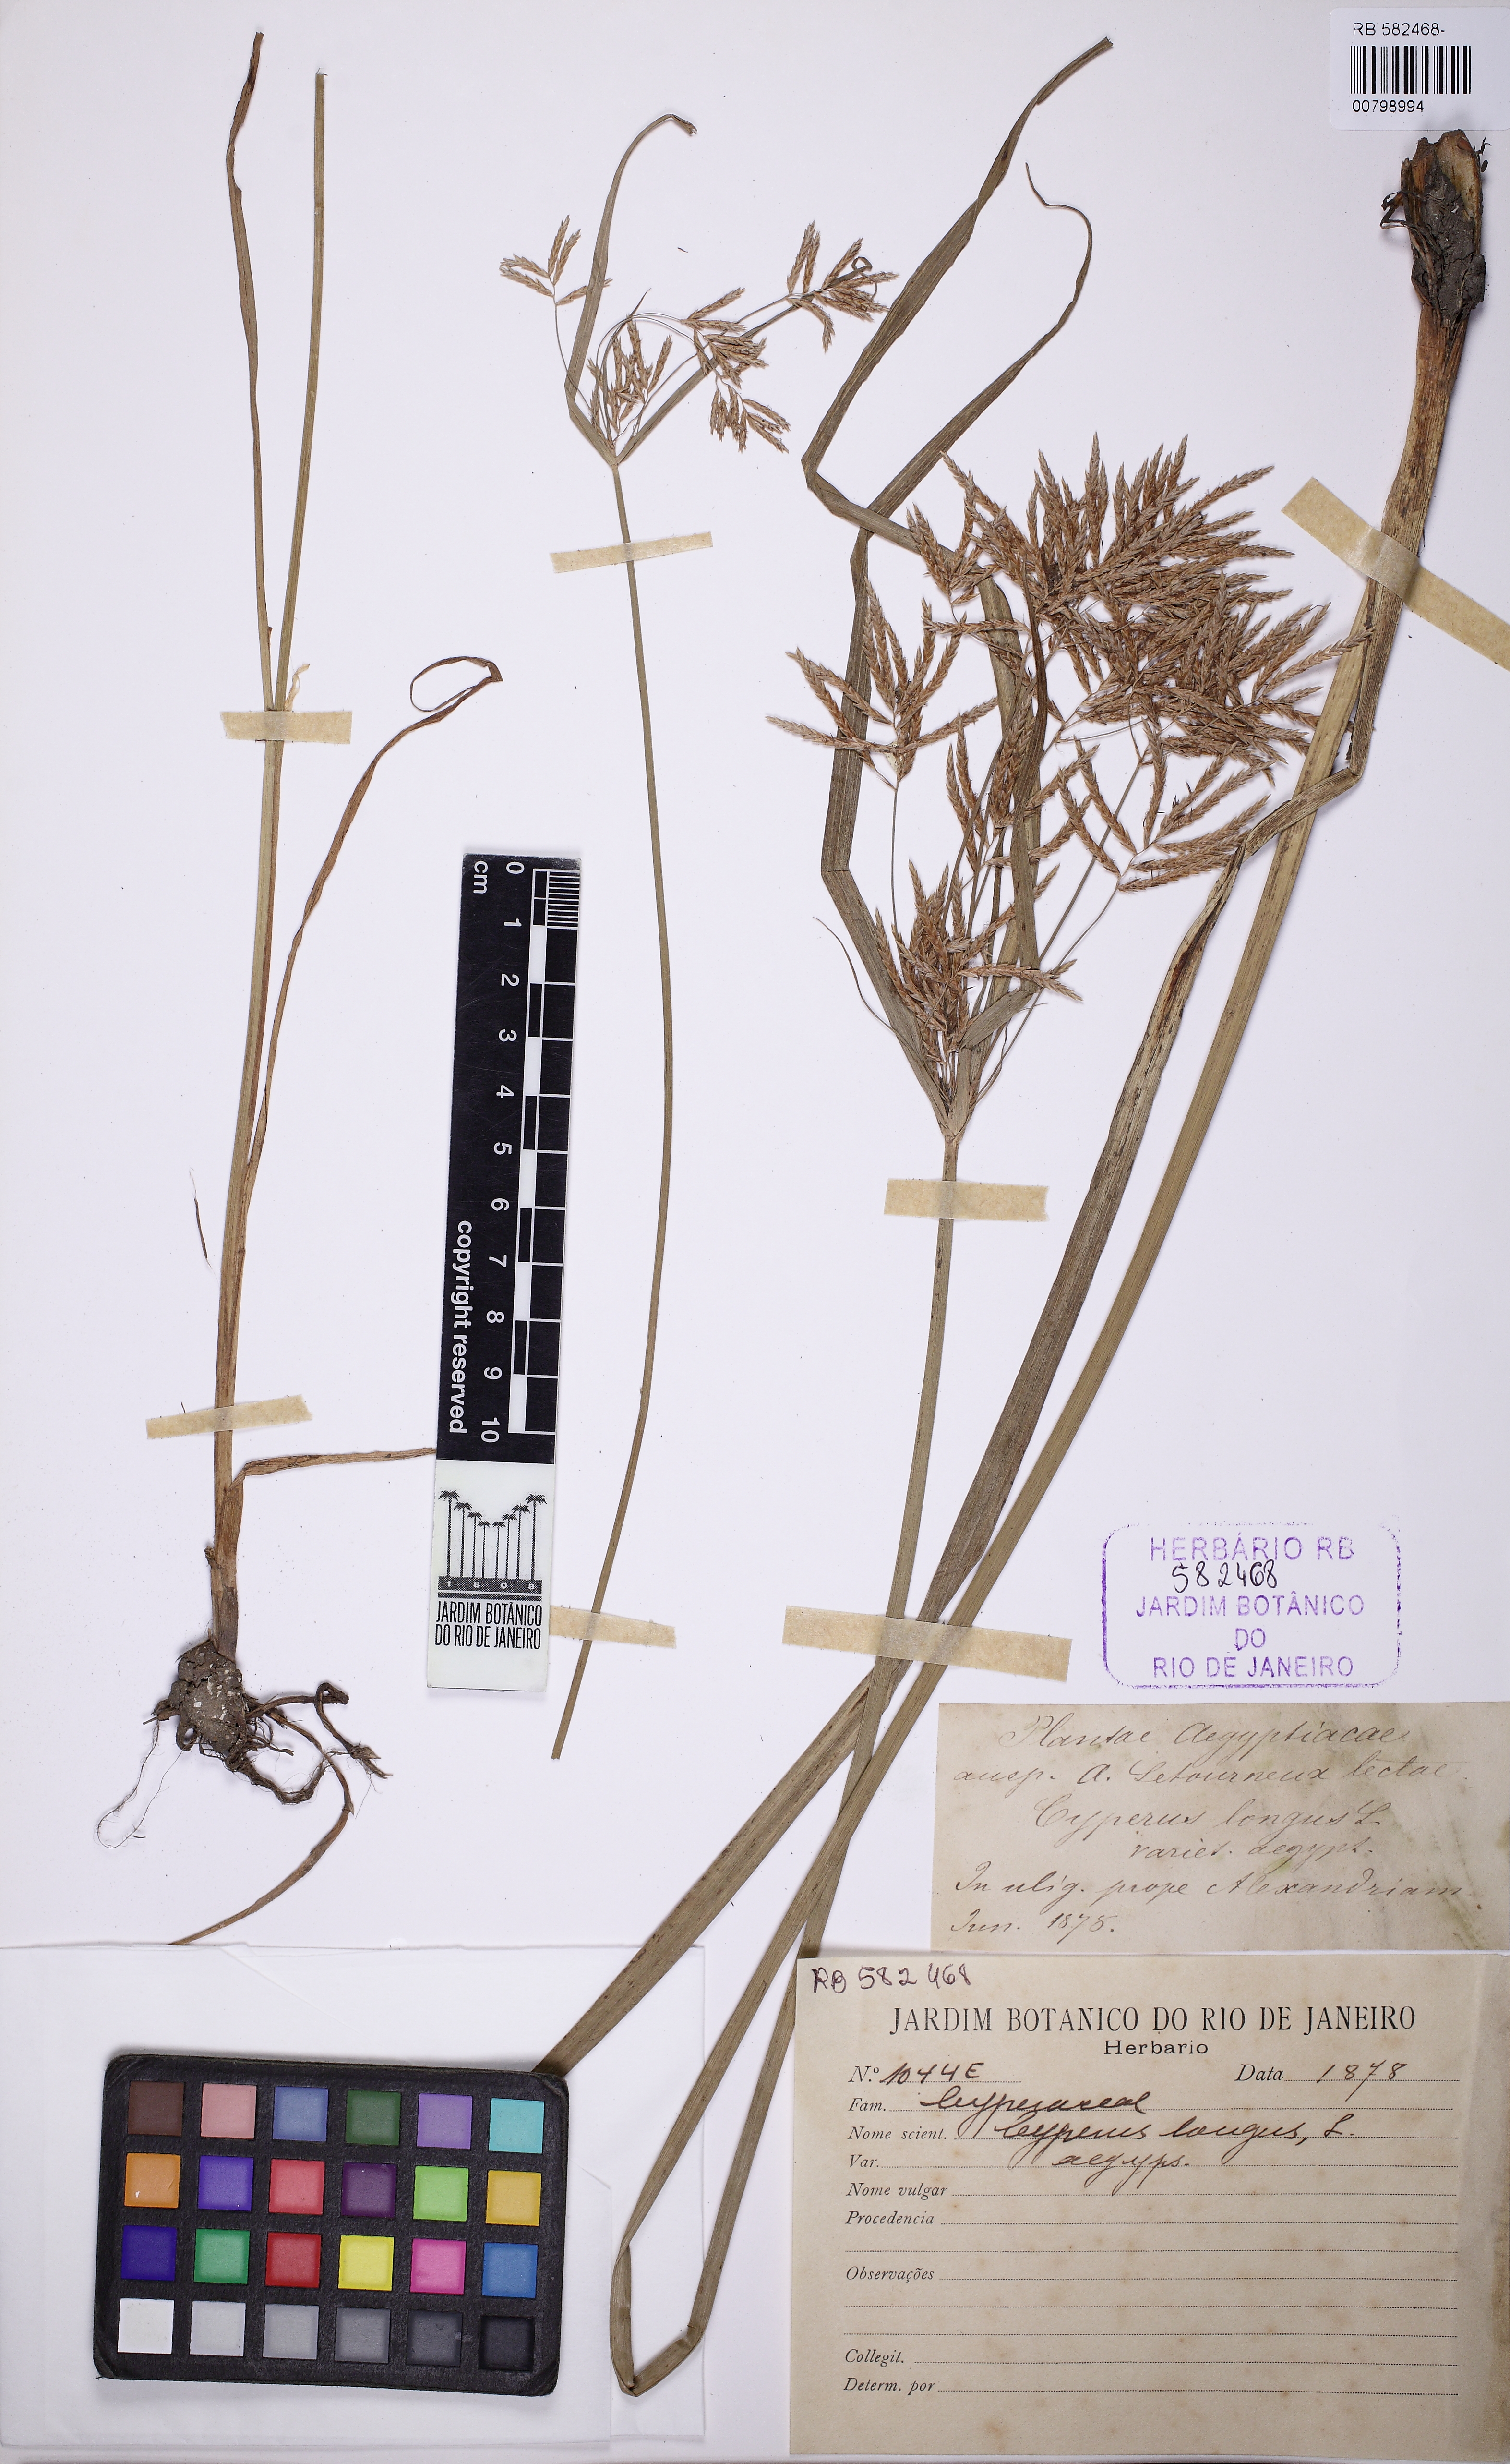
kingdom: Plantae
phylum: Tracheophyta
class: Liliopsida
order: Poales
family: Cyperaceae
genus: Cyperus
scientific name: Cyperus longus
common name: Galingale
